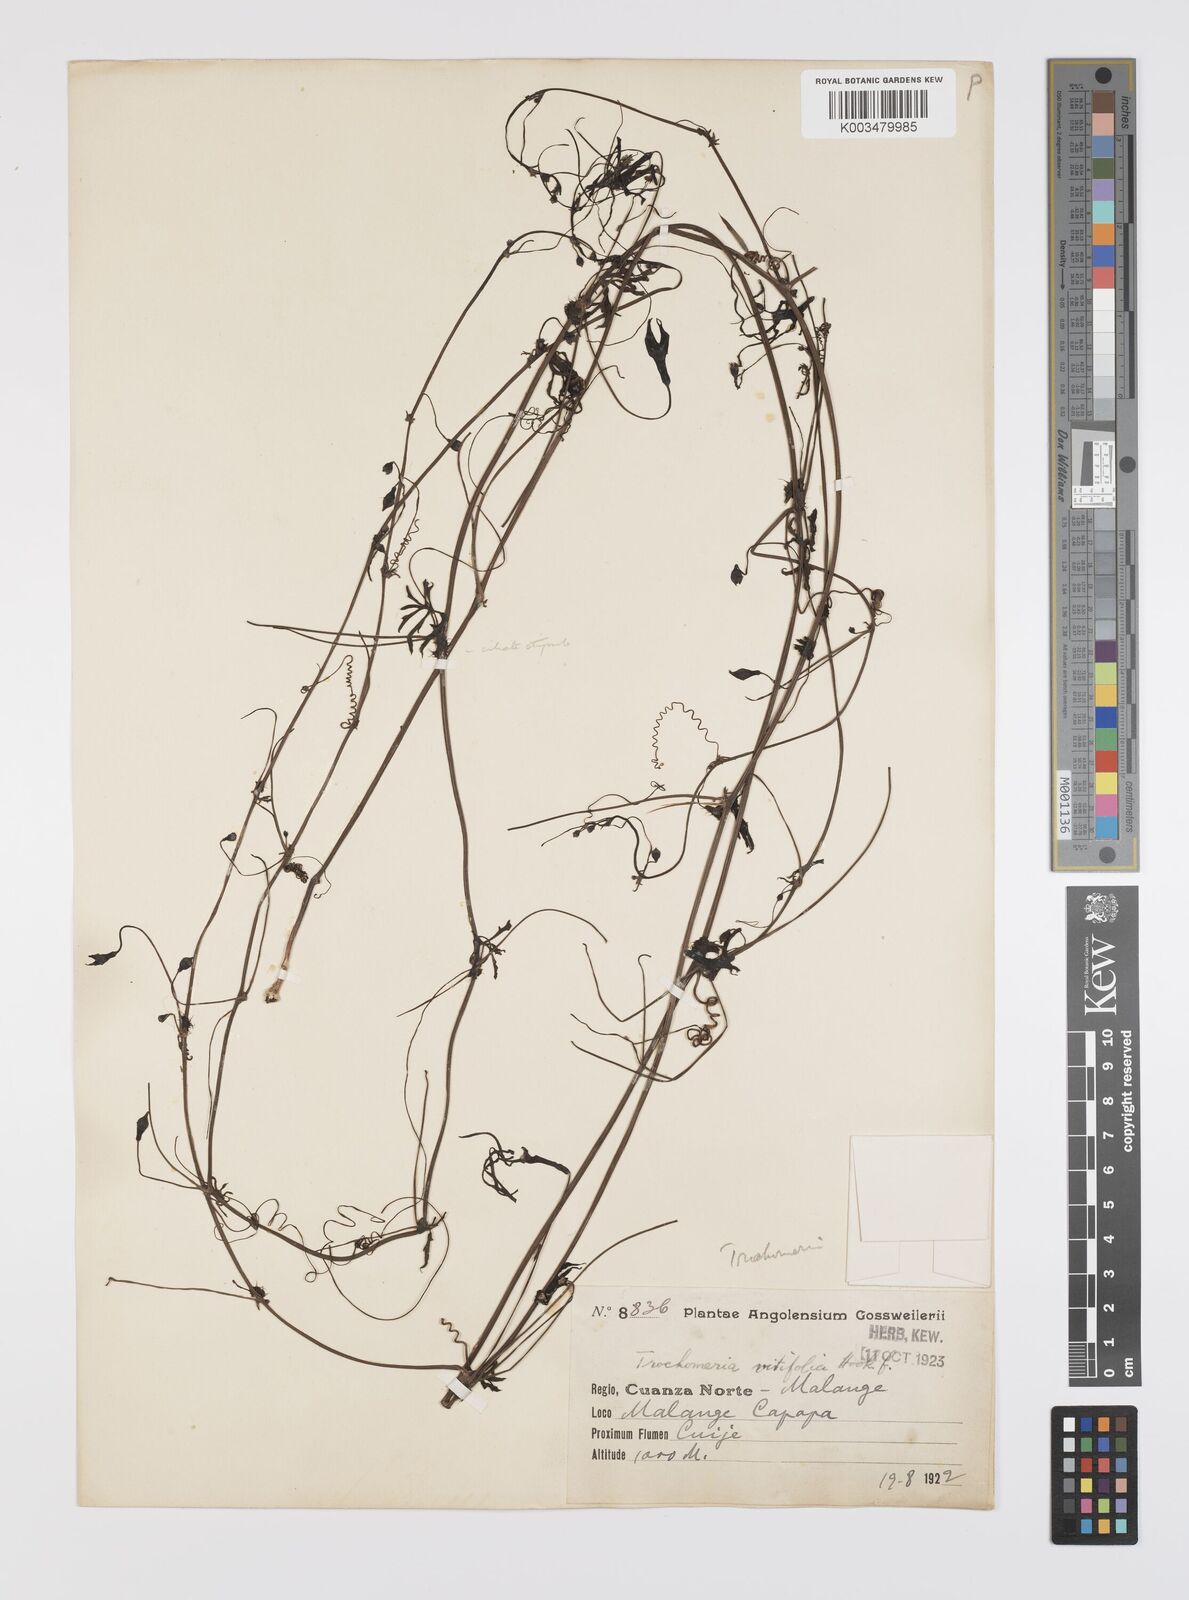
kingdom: Plantae
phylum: Tracheophyta
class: Magnoliopsida
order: Cucurbitales
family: Cucurbitaceae
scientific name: Cucurbitaceae
